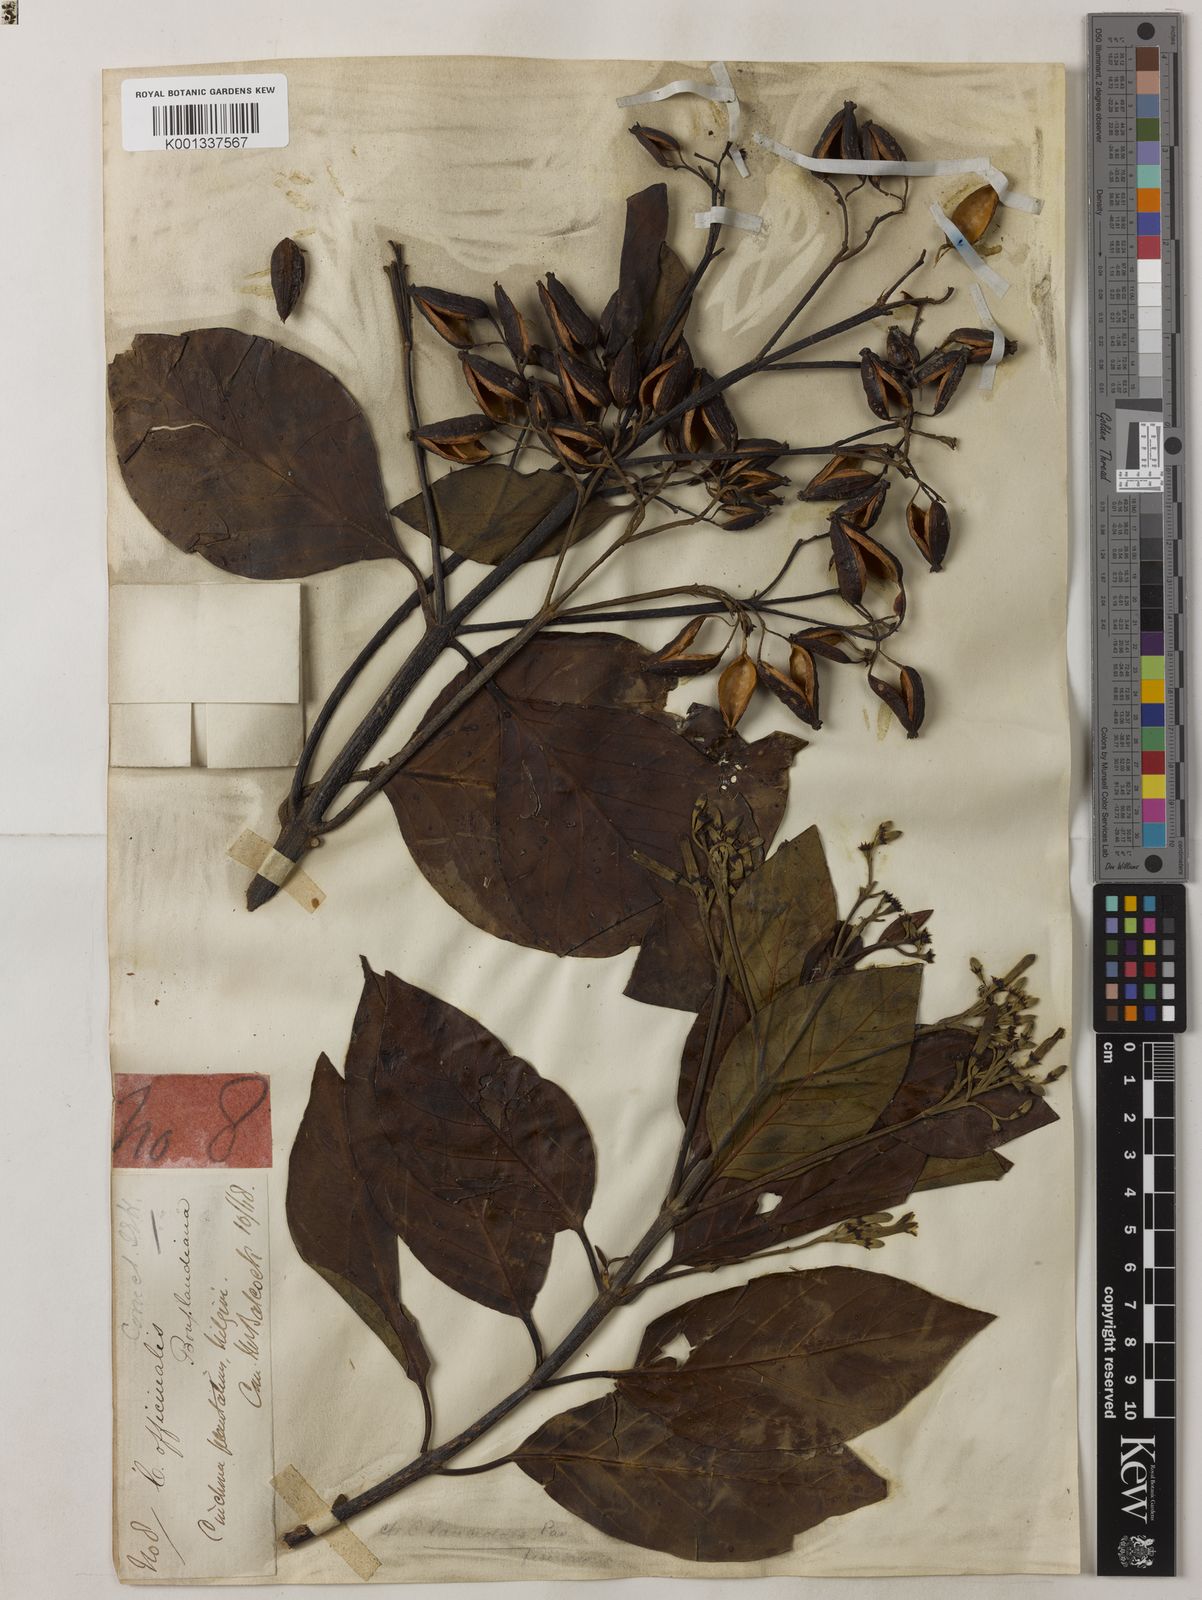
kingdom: Plantae
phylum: Tracheophyta
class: Magnoliopsida
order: Gentianales
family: Rubiaceae
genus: Cinchona
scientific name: Cinchona officinalis
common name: Lojabark
